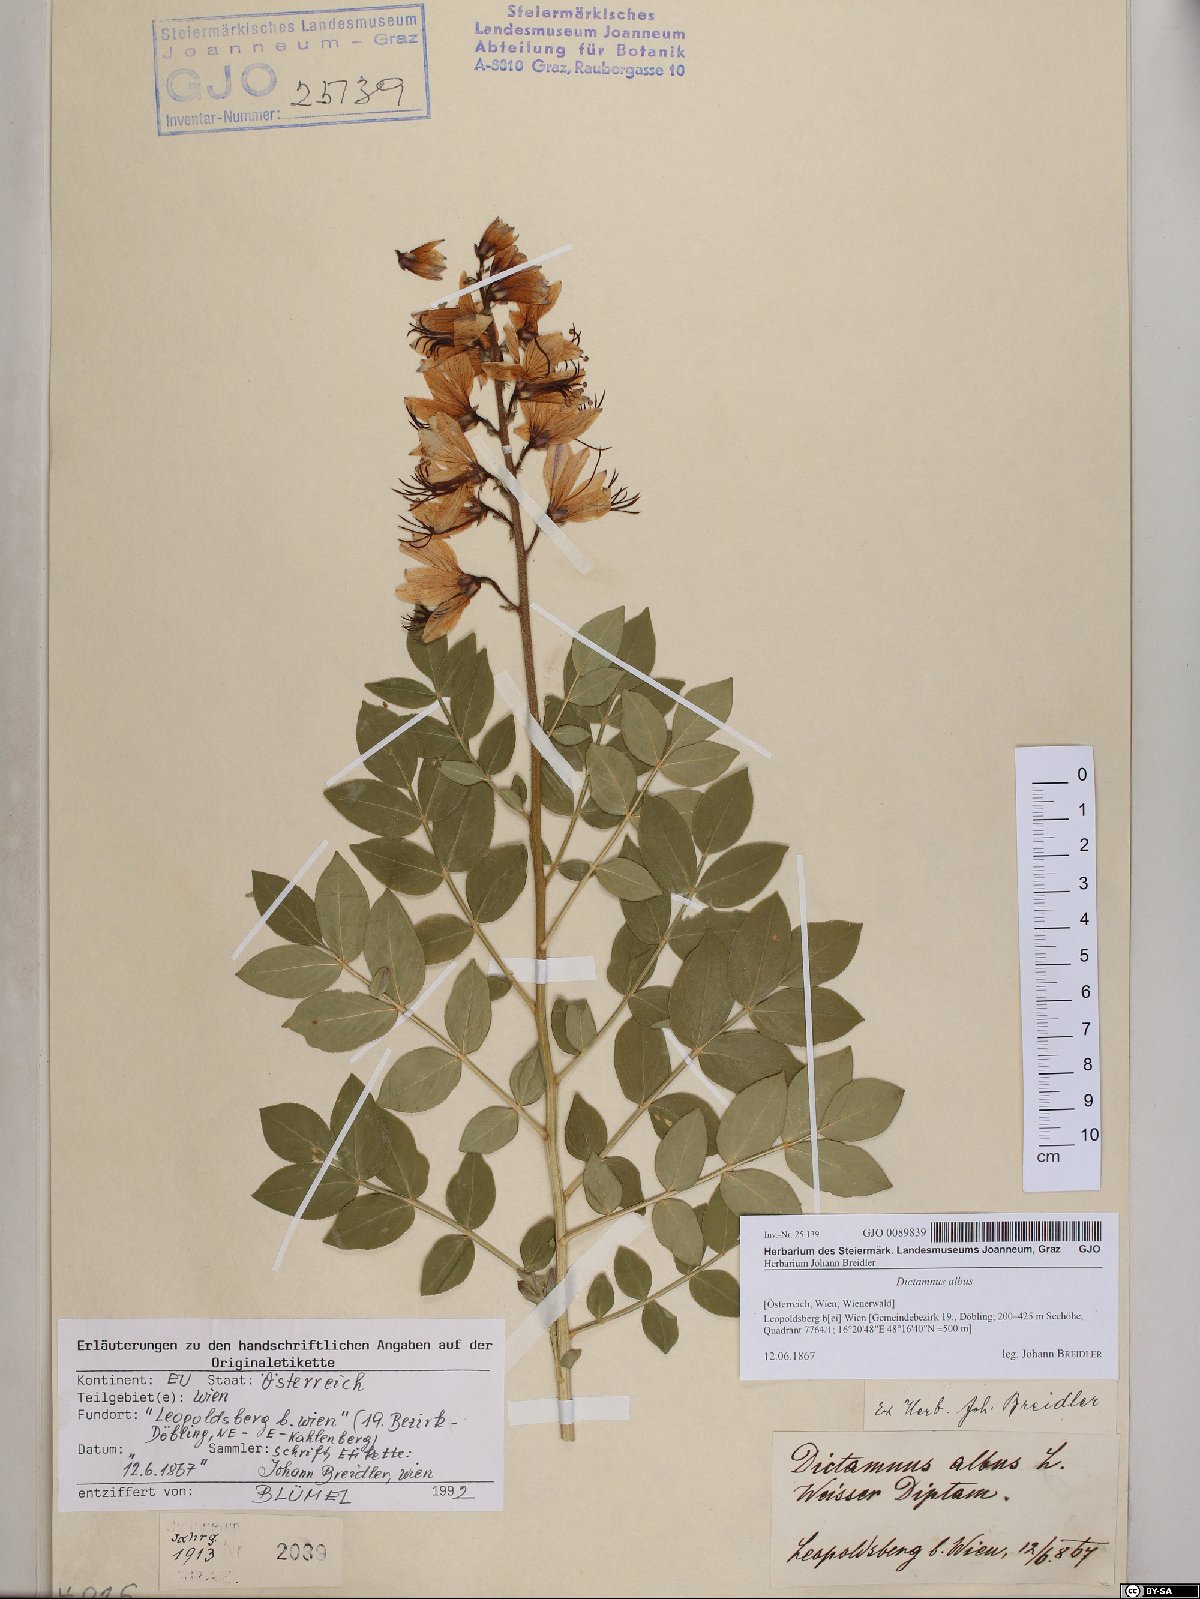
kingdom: Plantae
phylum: Tracheophyta
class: Magnoliopsida
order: Sapindales
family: Rutaceae
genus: Dictamnus
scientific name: Dictamnus albus
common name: Gasplant
